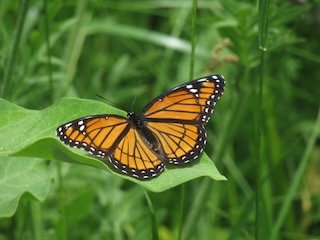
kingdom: Animalia
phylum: Arthropoda
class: Insecta
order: Lepidoptera
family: Nymphalidae
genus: Limenitis
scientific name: Limenitis archippus
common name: Viceroy
